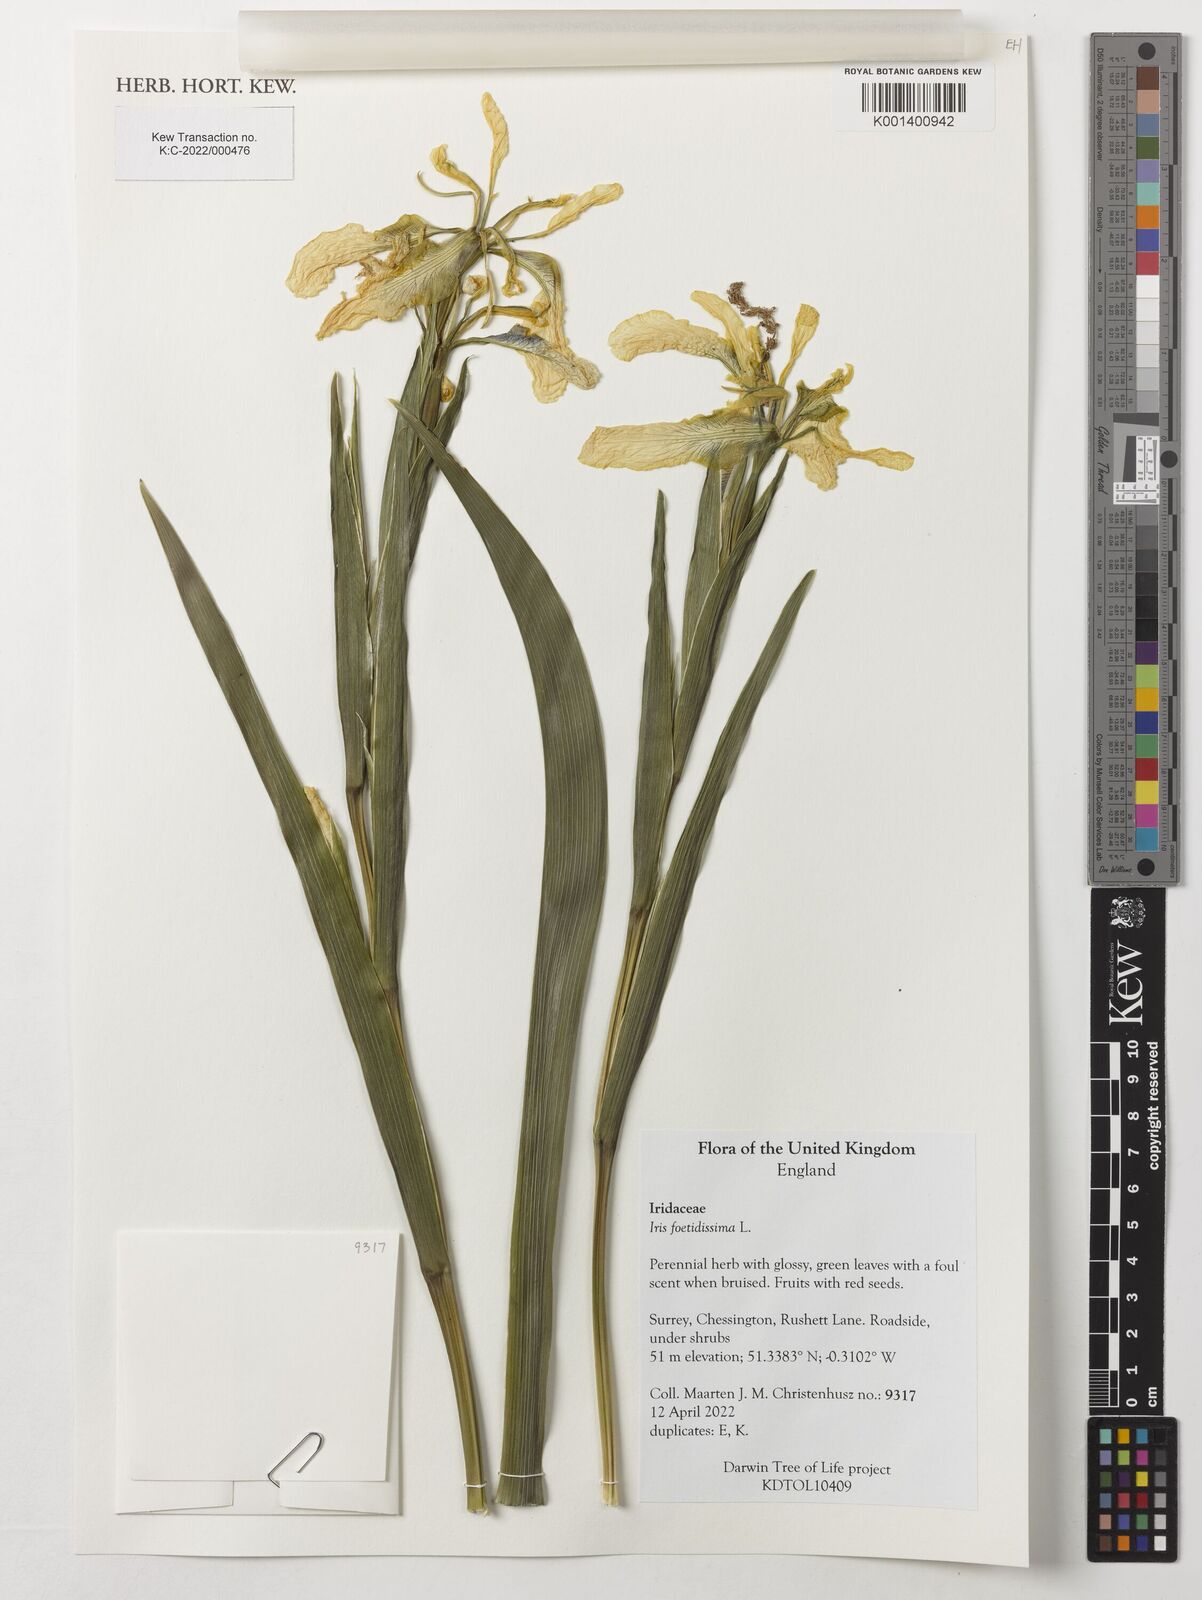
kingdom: Plantae
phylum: Tracheophyta
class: Liliopsida
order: Asparagales
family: Iridaceae
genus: Iris
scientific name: Iris foetidissima
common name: Stinking iris
